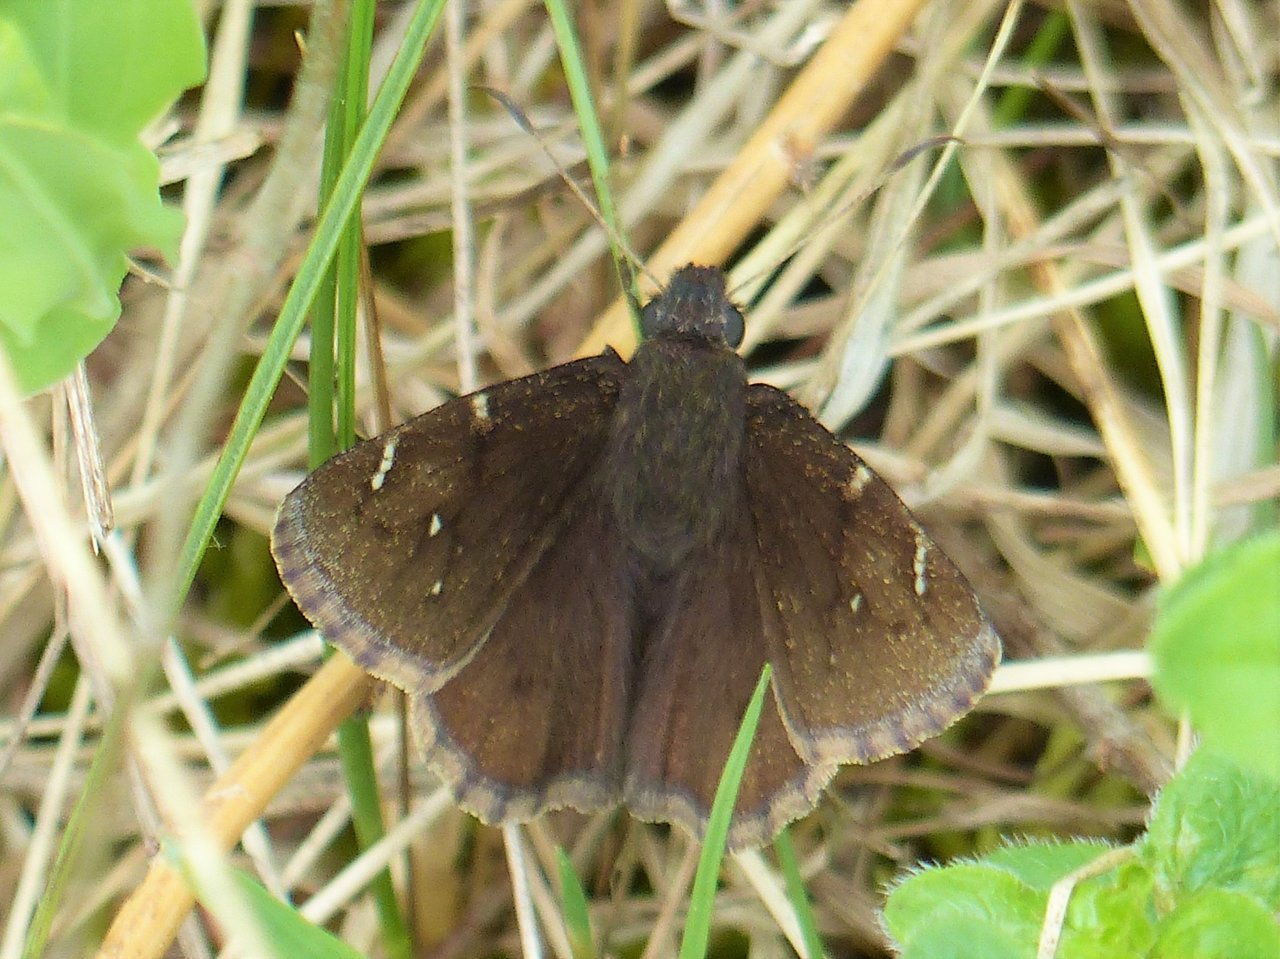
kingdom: Animalia
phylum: Arthropoda
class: Insecta
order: Lepidoptera
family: Hesperiidae
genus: Autochton
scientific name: Autochton
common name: Northern Cloudywing
